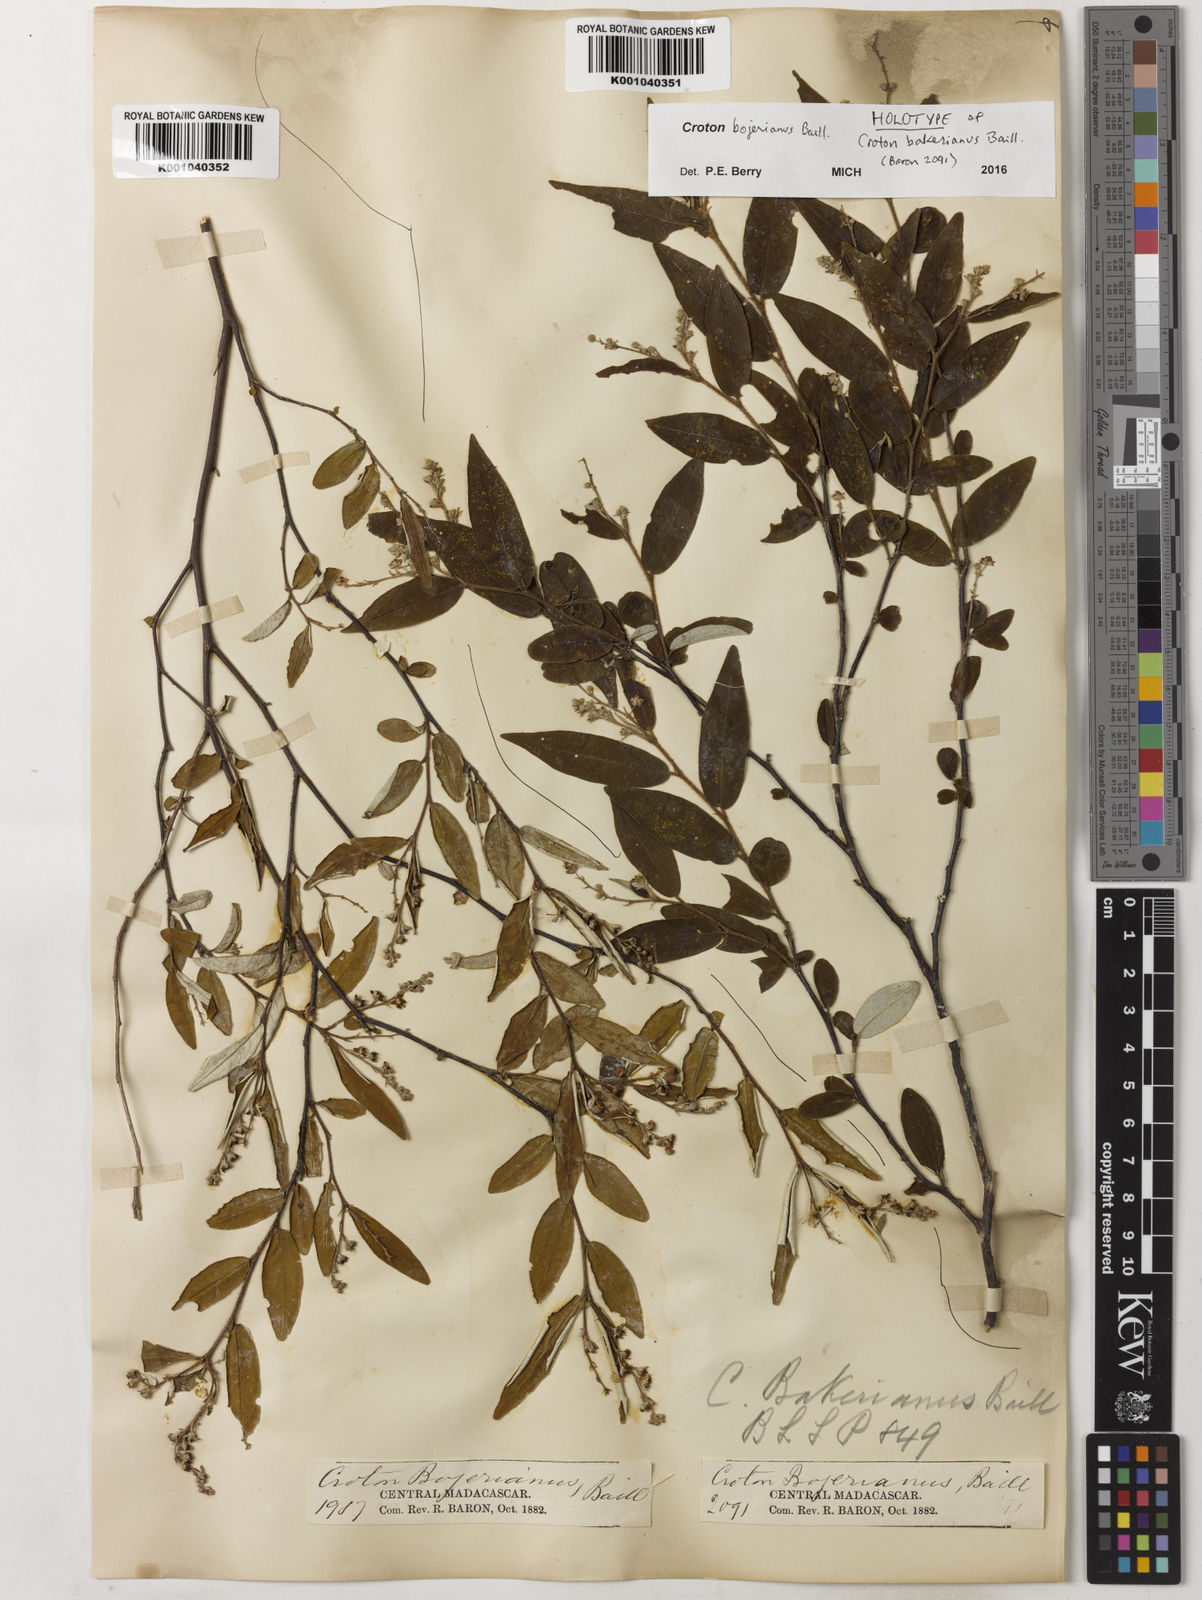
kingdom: Plantae
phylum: Tracheophyta
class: Magnoliopsida
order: Malpighiales
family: Euphorbiaceae
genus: Croton
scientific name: Croton bojerianus
